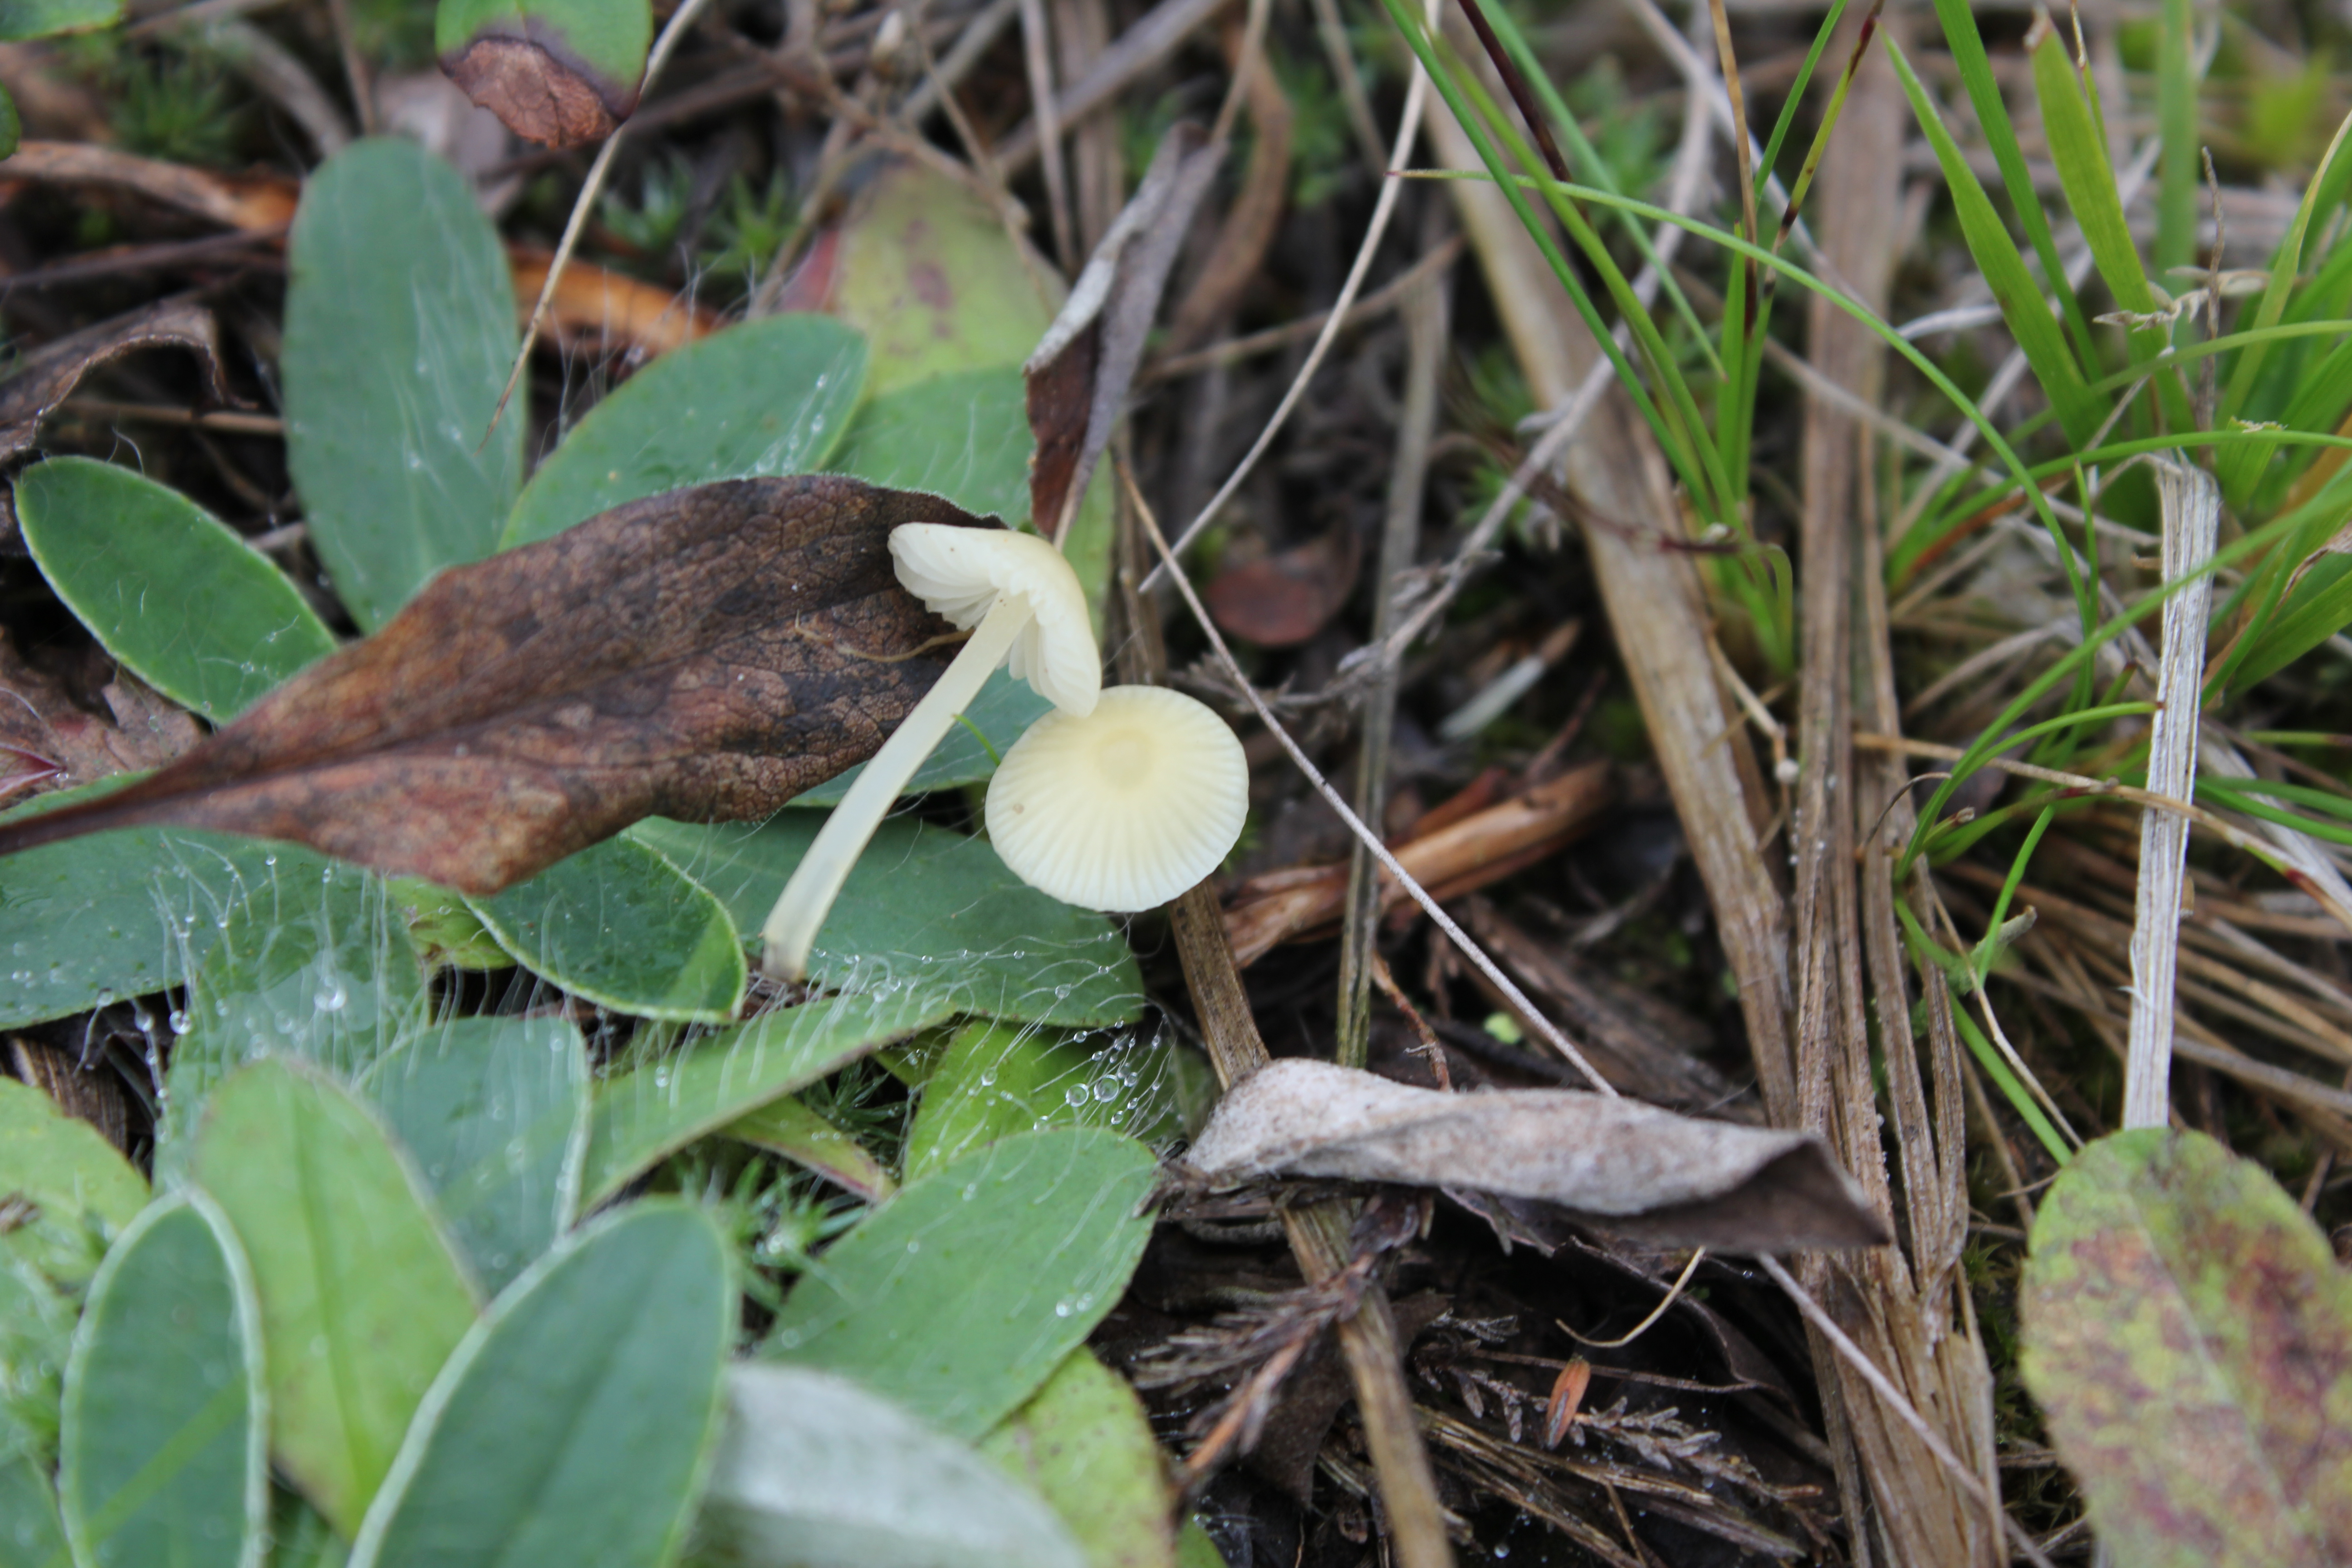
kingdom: Fungi
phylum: Basidiomycota
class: Agaricomycetes
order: Agaricales
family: Mycenaceae
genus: Atheniella
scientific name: Atheniella flavoalba
